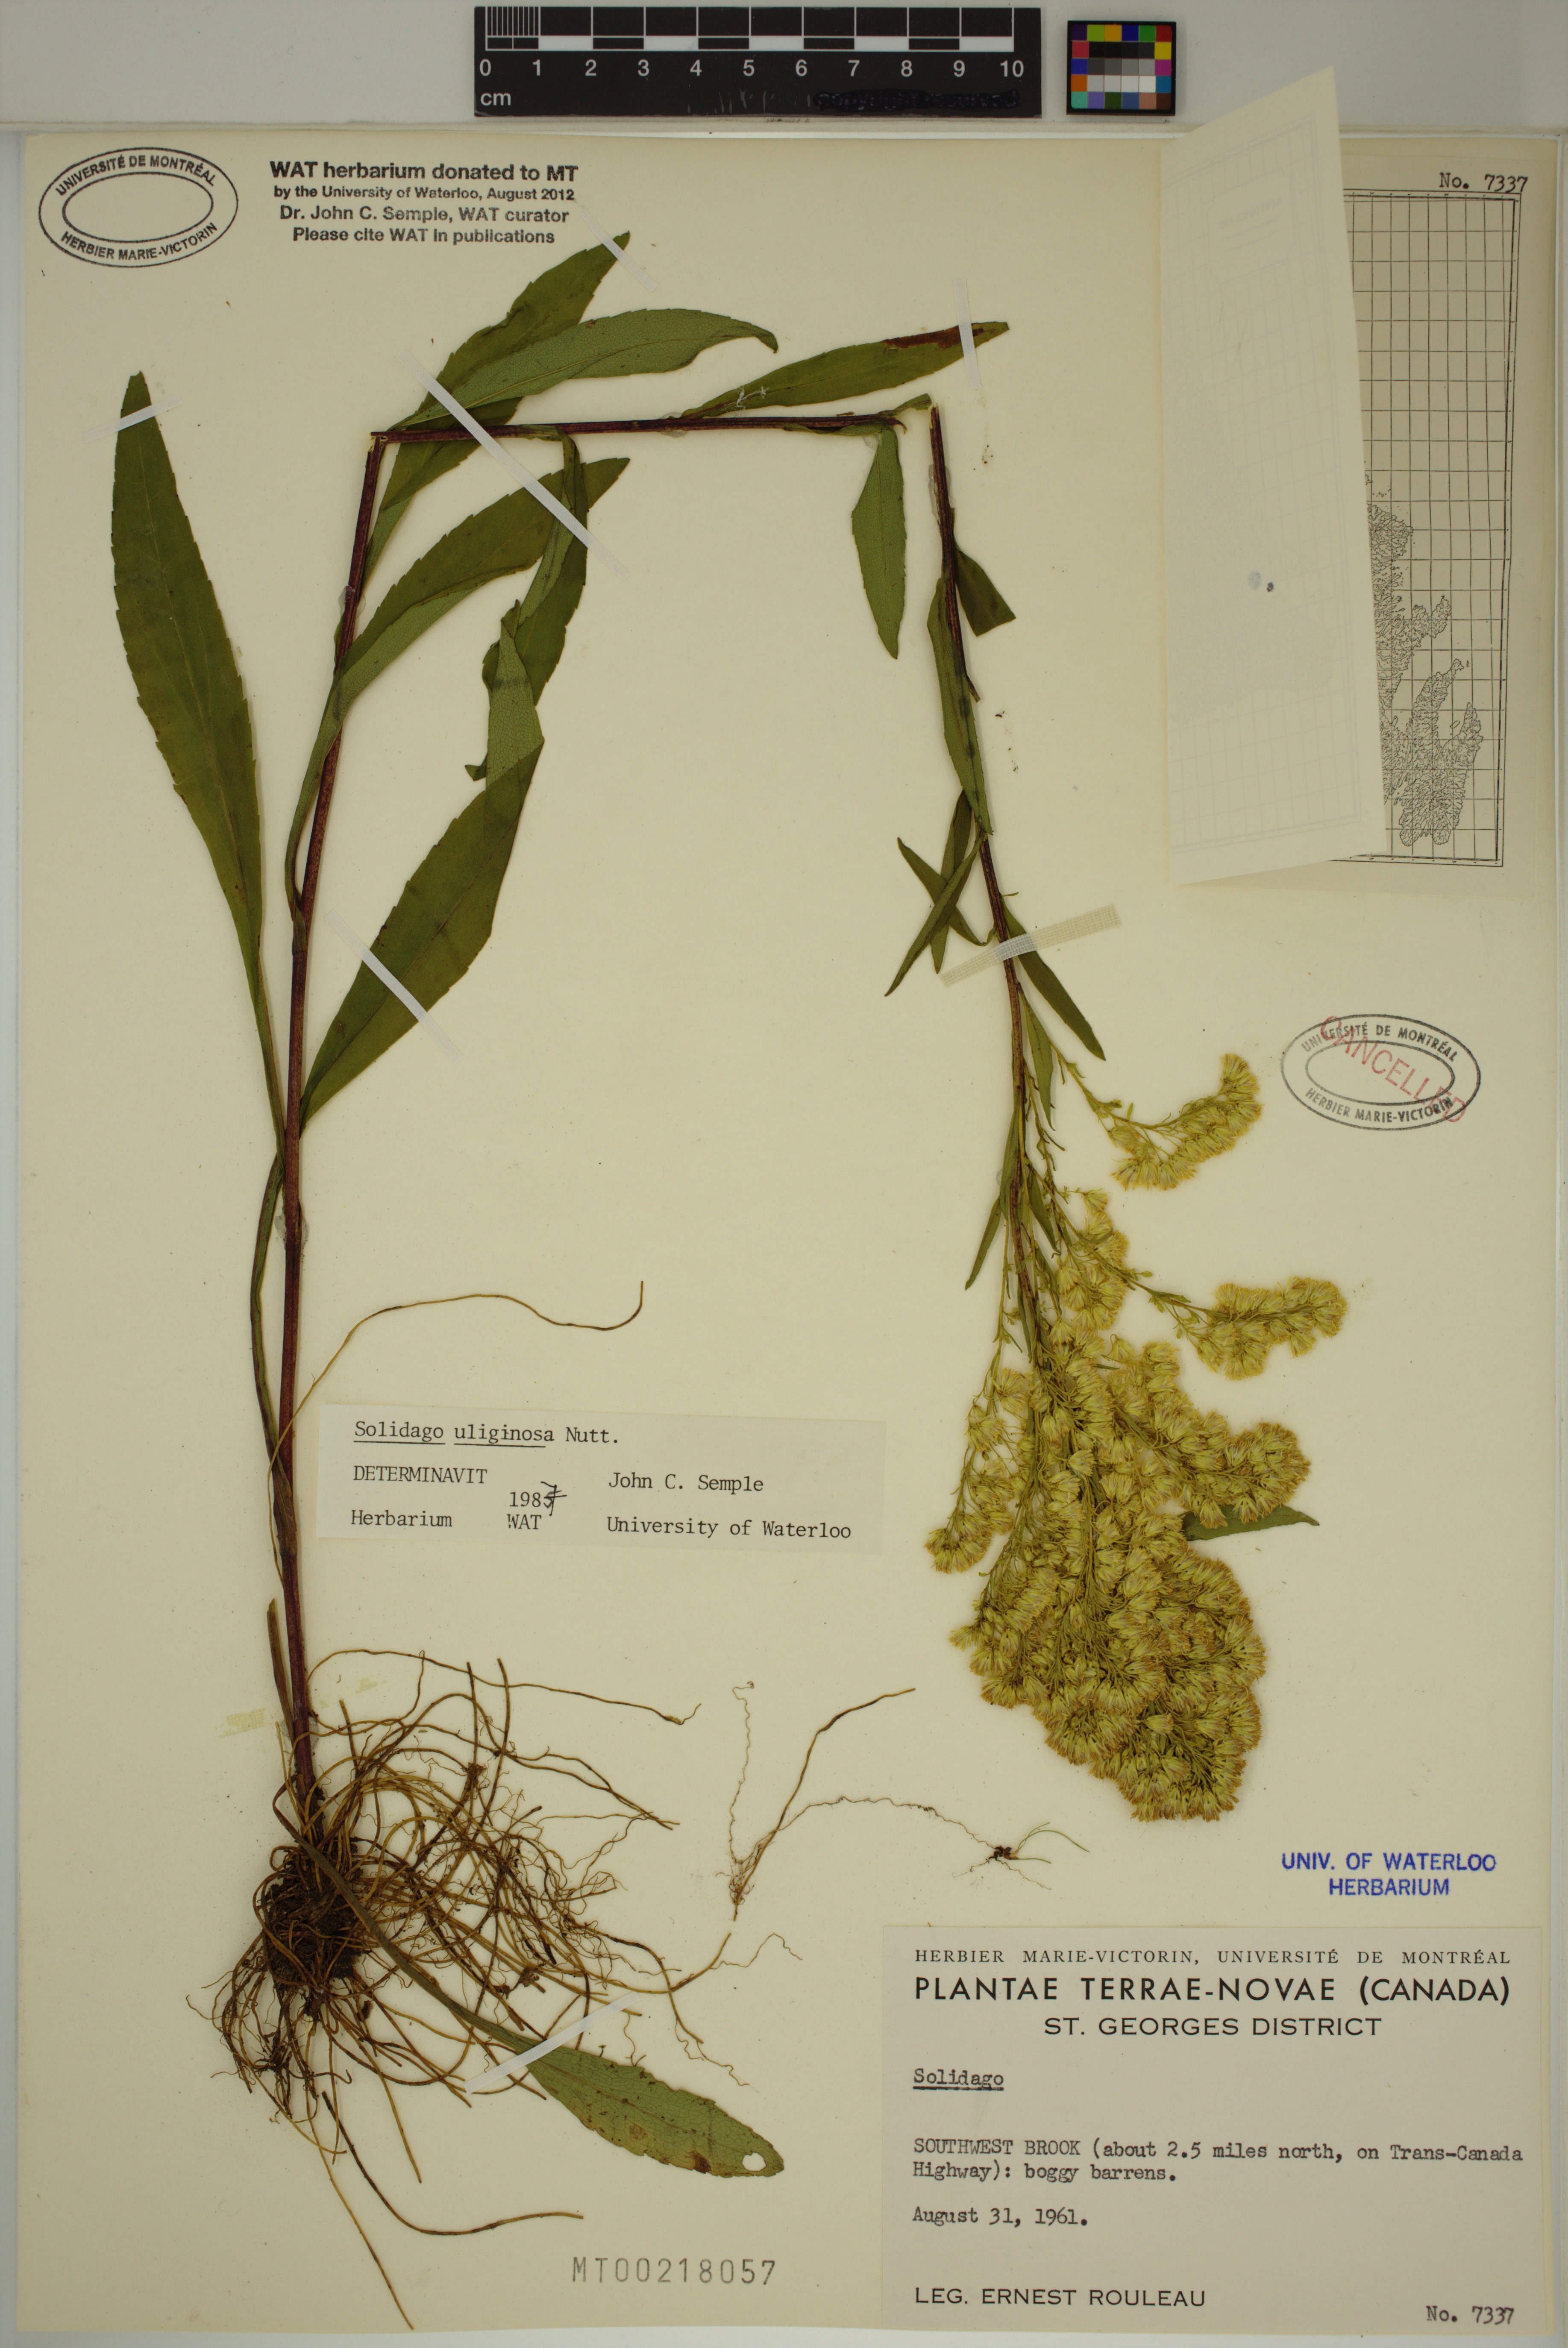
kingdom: Plantae
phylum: Tracheophyta
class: Magnoliopsida
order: Asterales
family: Asteraceae
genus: Solidago
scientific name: Solidago uliginosa
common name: Bog goldenrod
